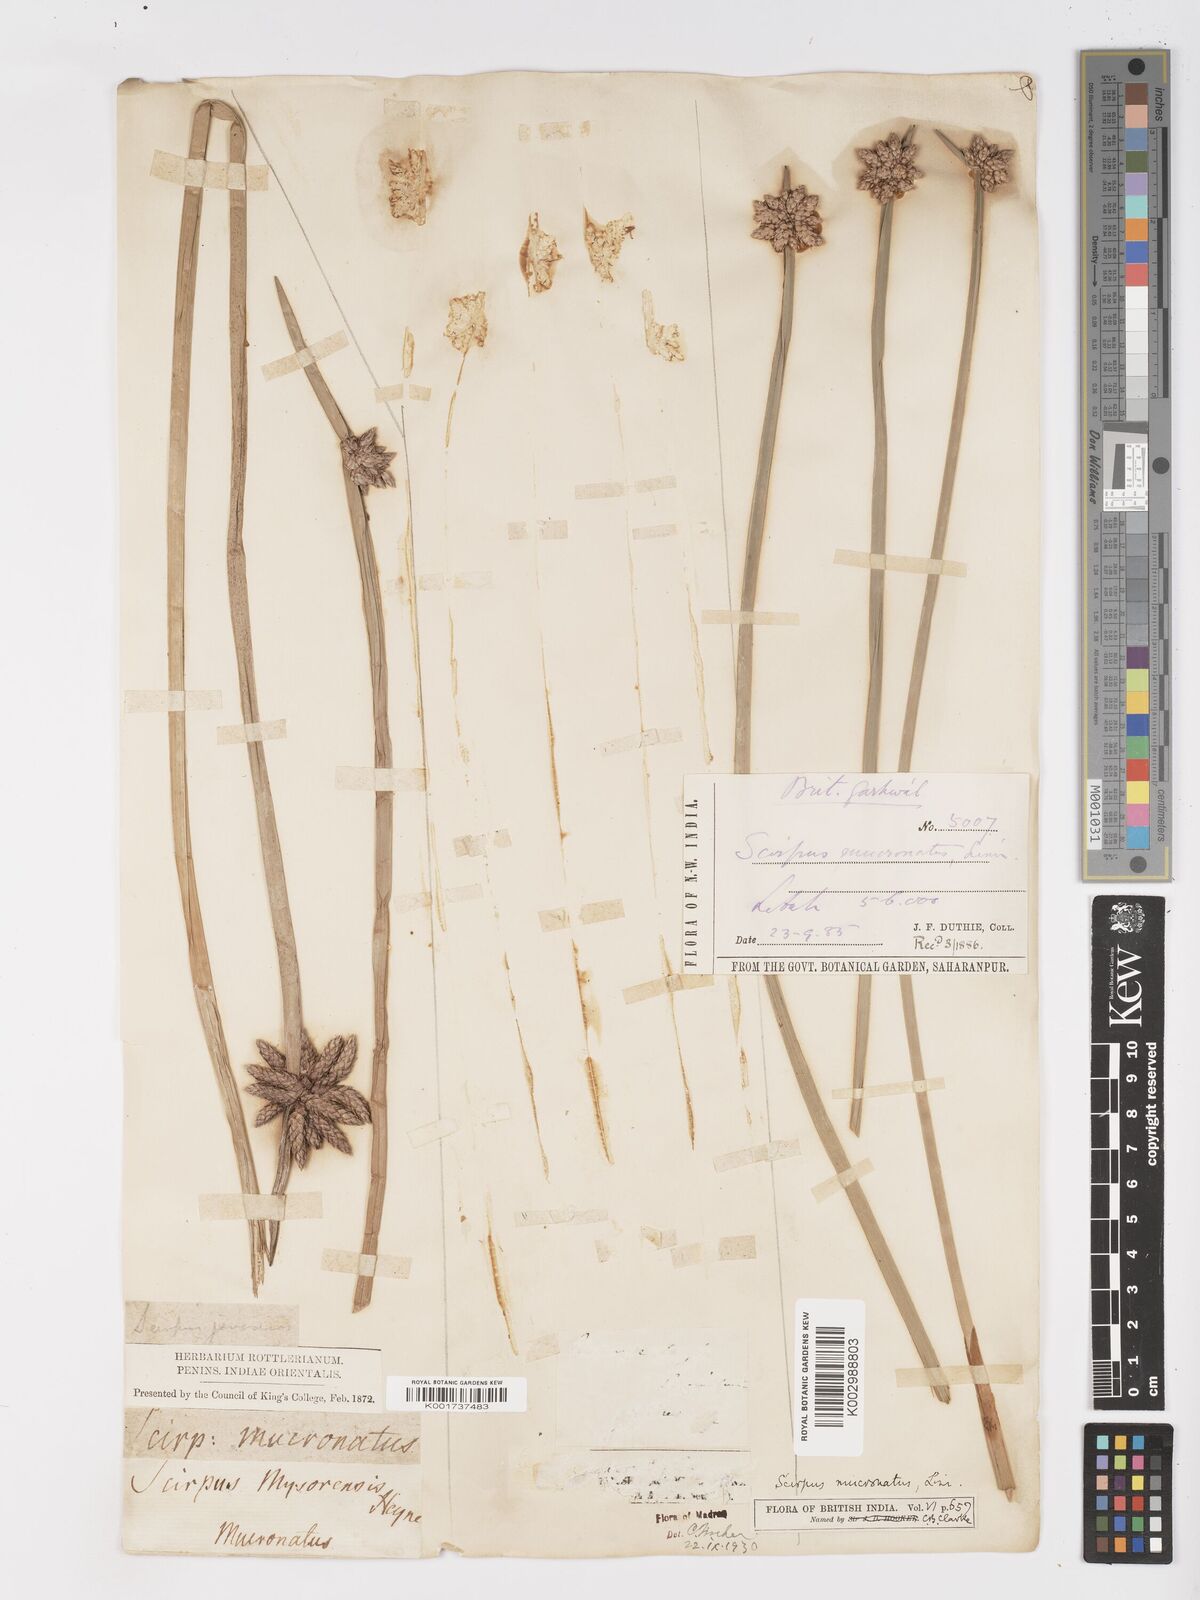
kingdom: Plantae
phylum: Tracheophyta
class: Liliopsida
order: Poales
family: Cyperaceae
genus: Schoenoplectiella
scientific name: Schoenoplectiella mucronata
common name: Bog bulrush
